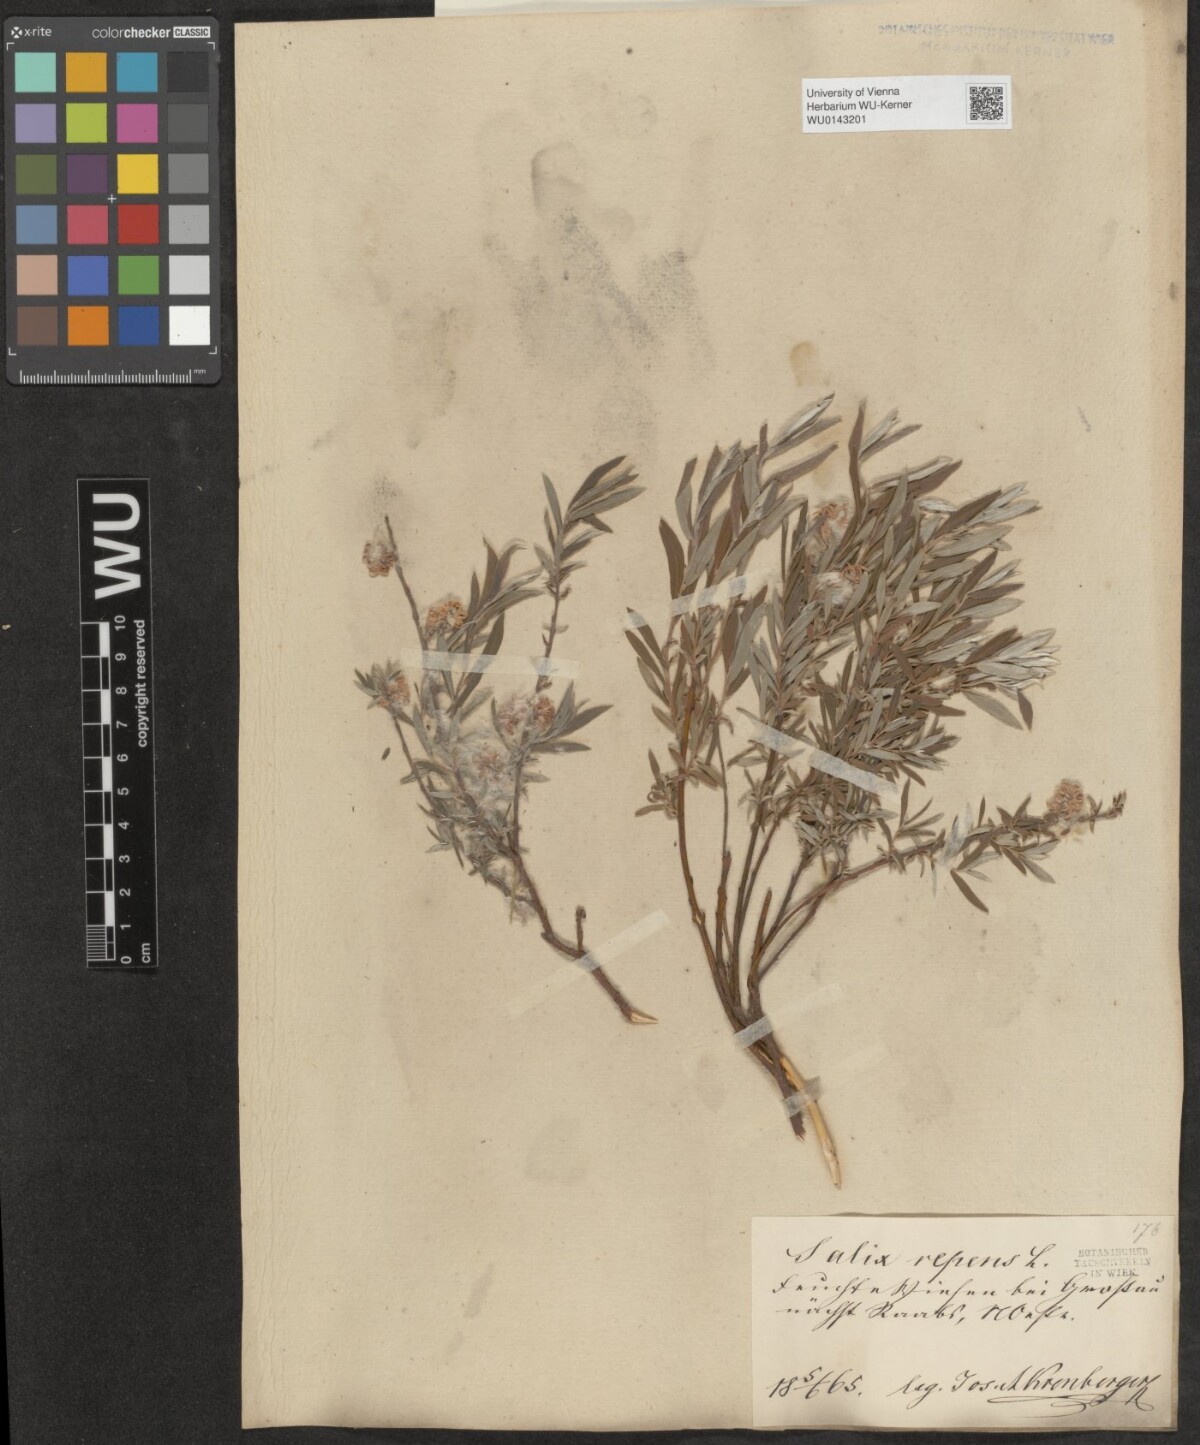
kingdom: Plantae
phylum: Tracheophyta
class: Magnoliopsida
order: Malpighiales
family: Salicaceae
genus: Salix
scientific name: Salix repens
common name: Creeping willow
